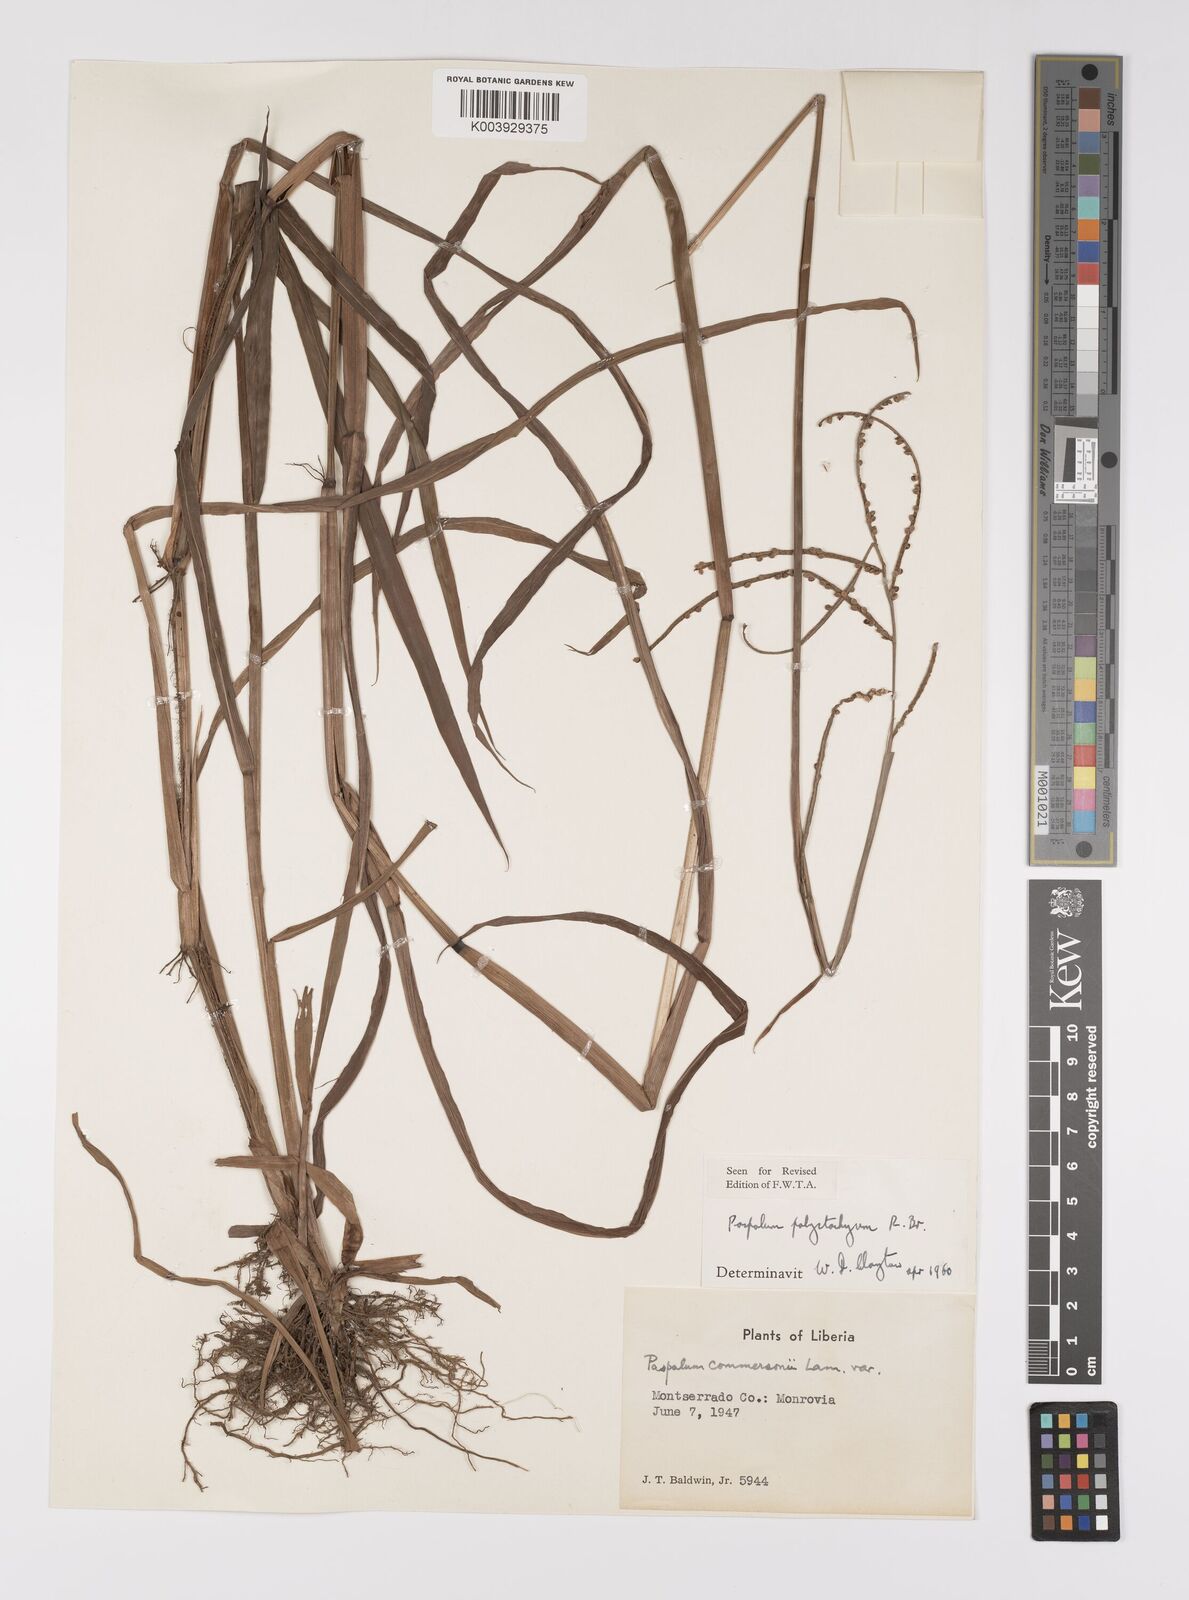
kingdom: Plantae
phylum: Tracheophyta
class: Liliopsida
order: Poales
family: Poaceae
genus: Paspalum
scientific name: Paspalum scrobiculatum
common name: Kodo millet
